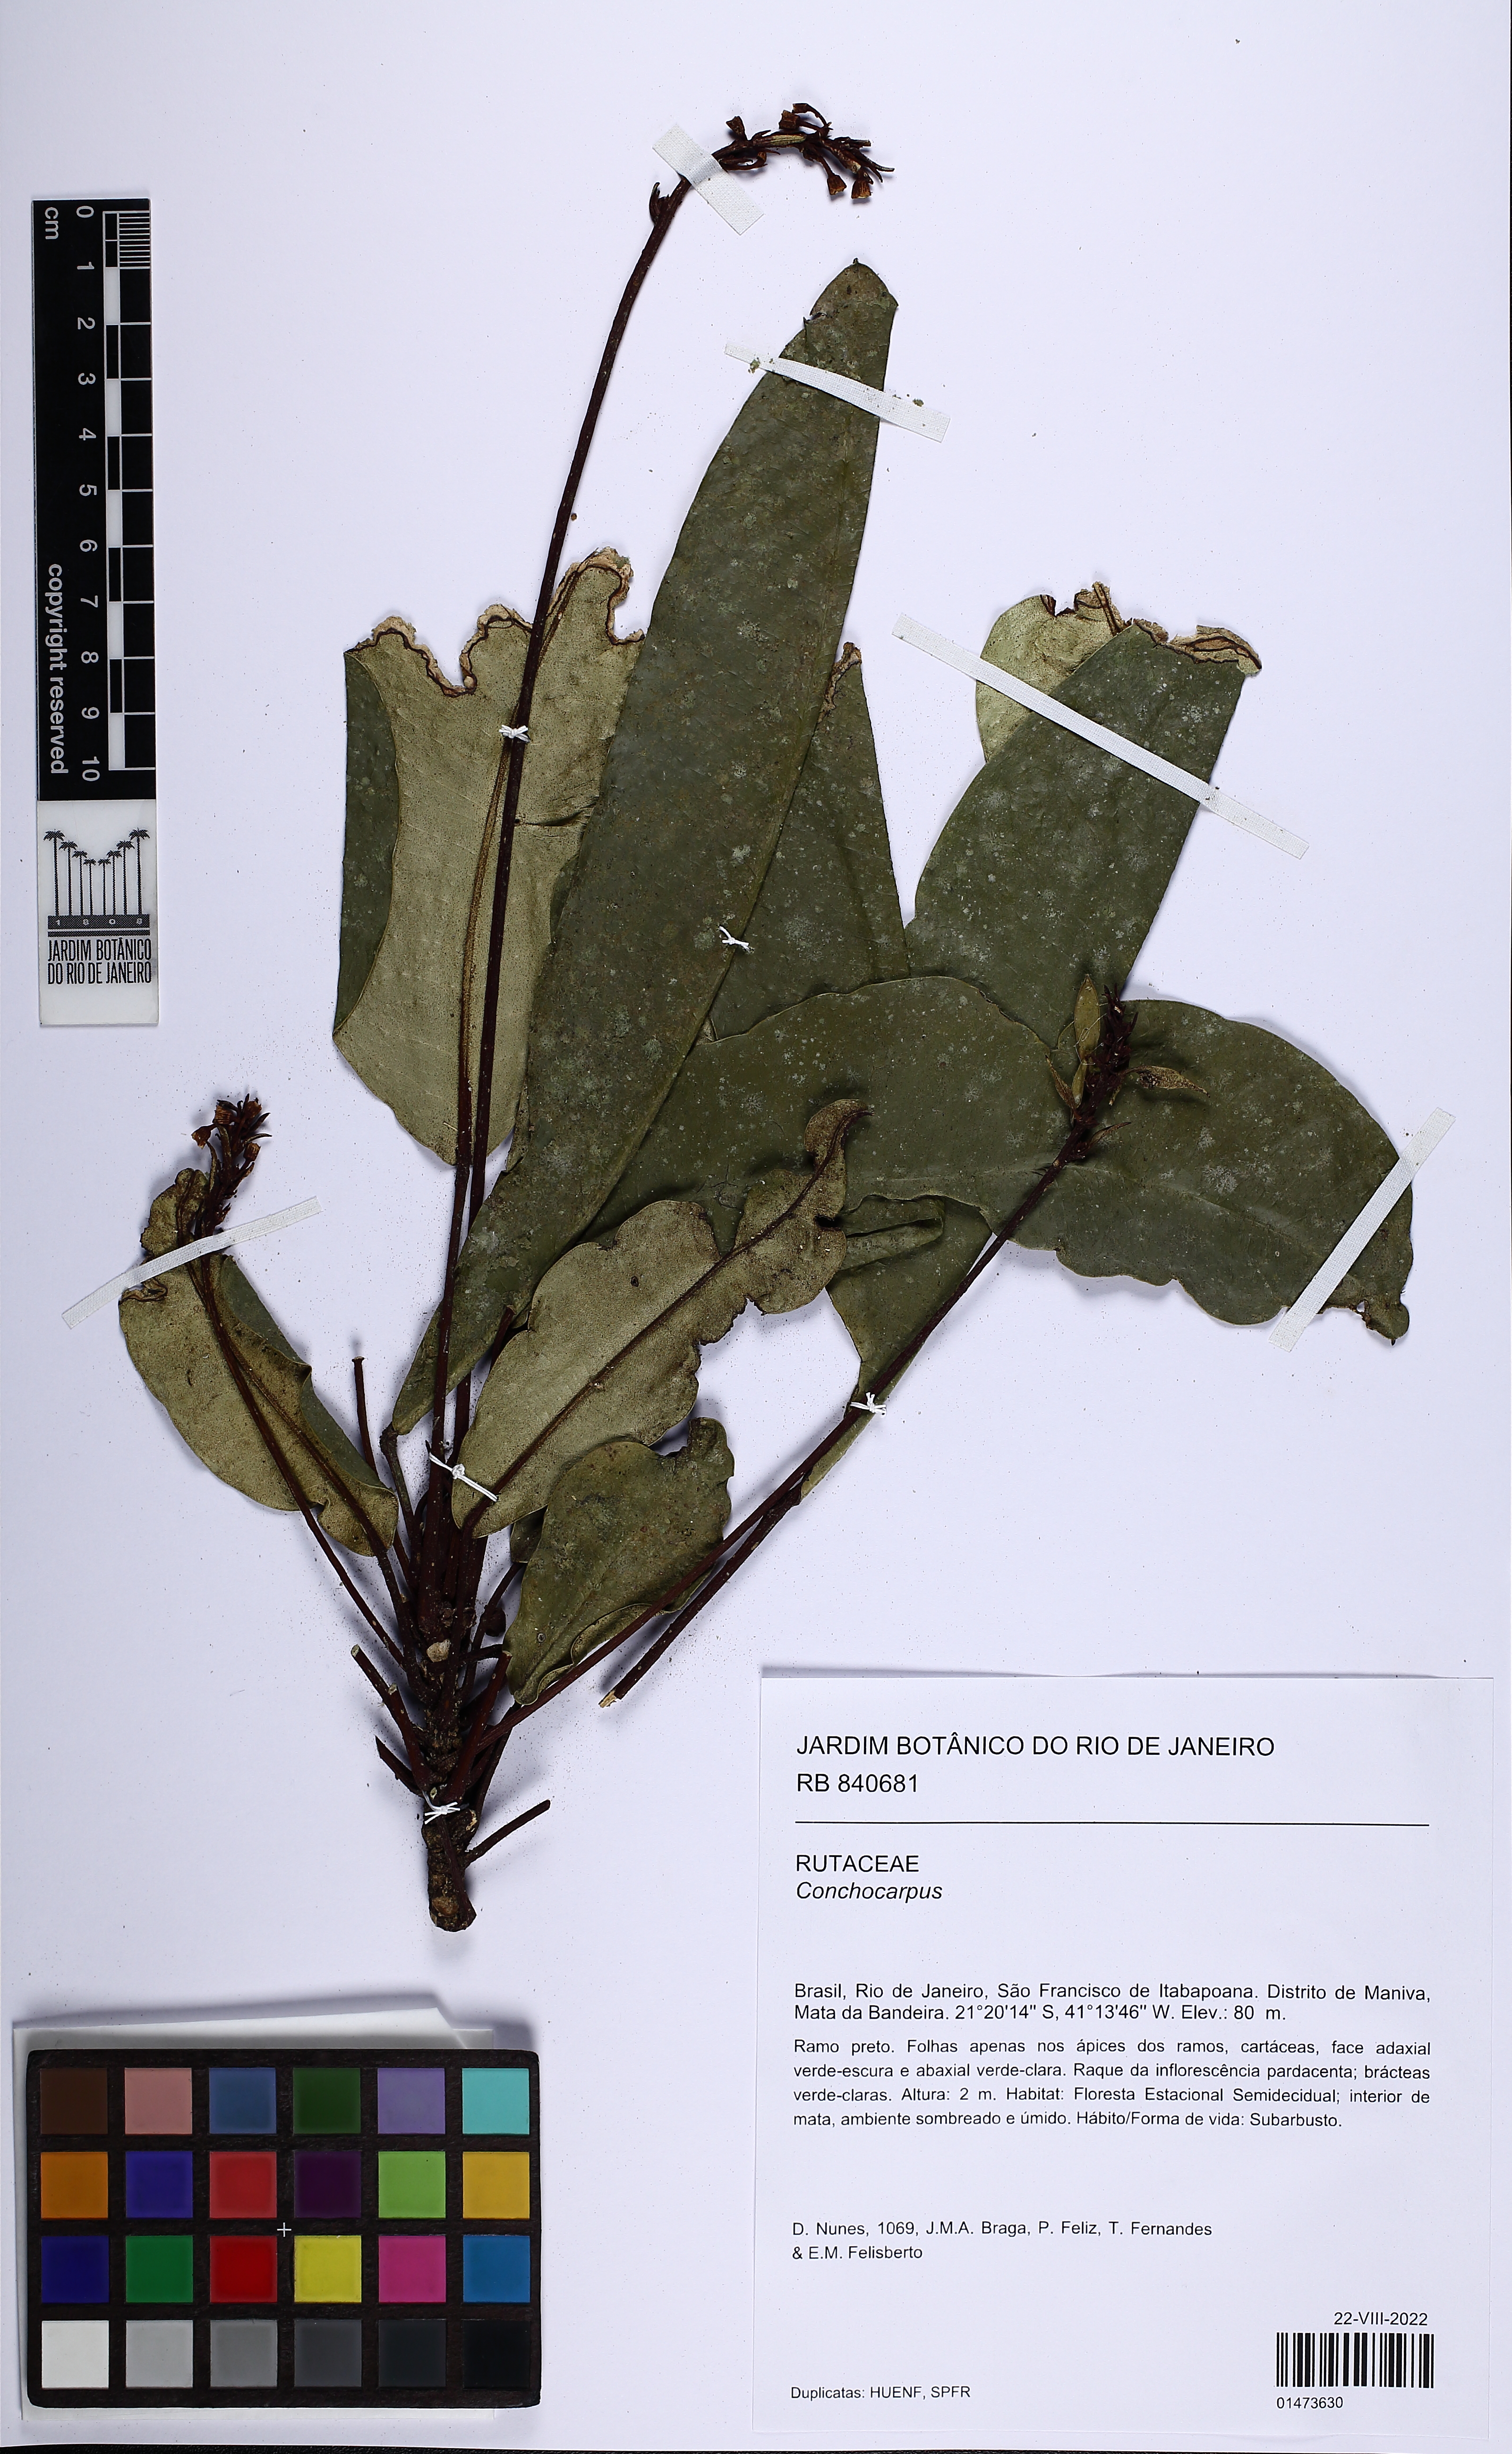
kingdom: Plantae
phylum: Tracheophyta
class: Magnoliopsida
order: Sapindales
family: Rutaceae
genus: Conchocarpus
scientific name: Conchocarpus macrophyllus
